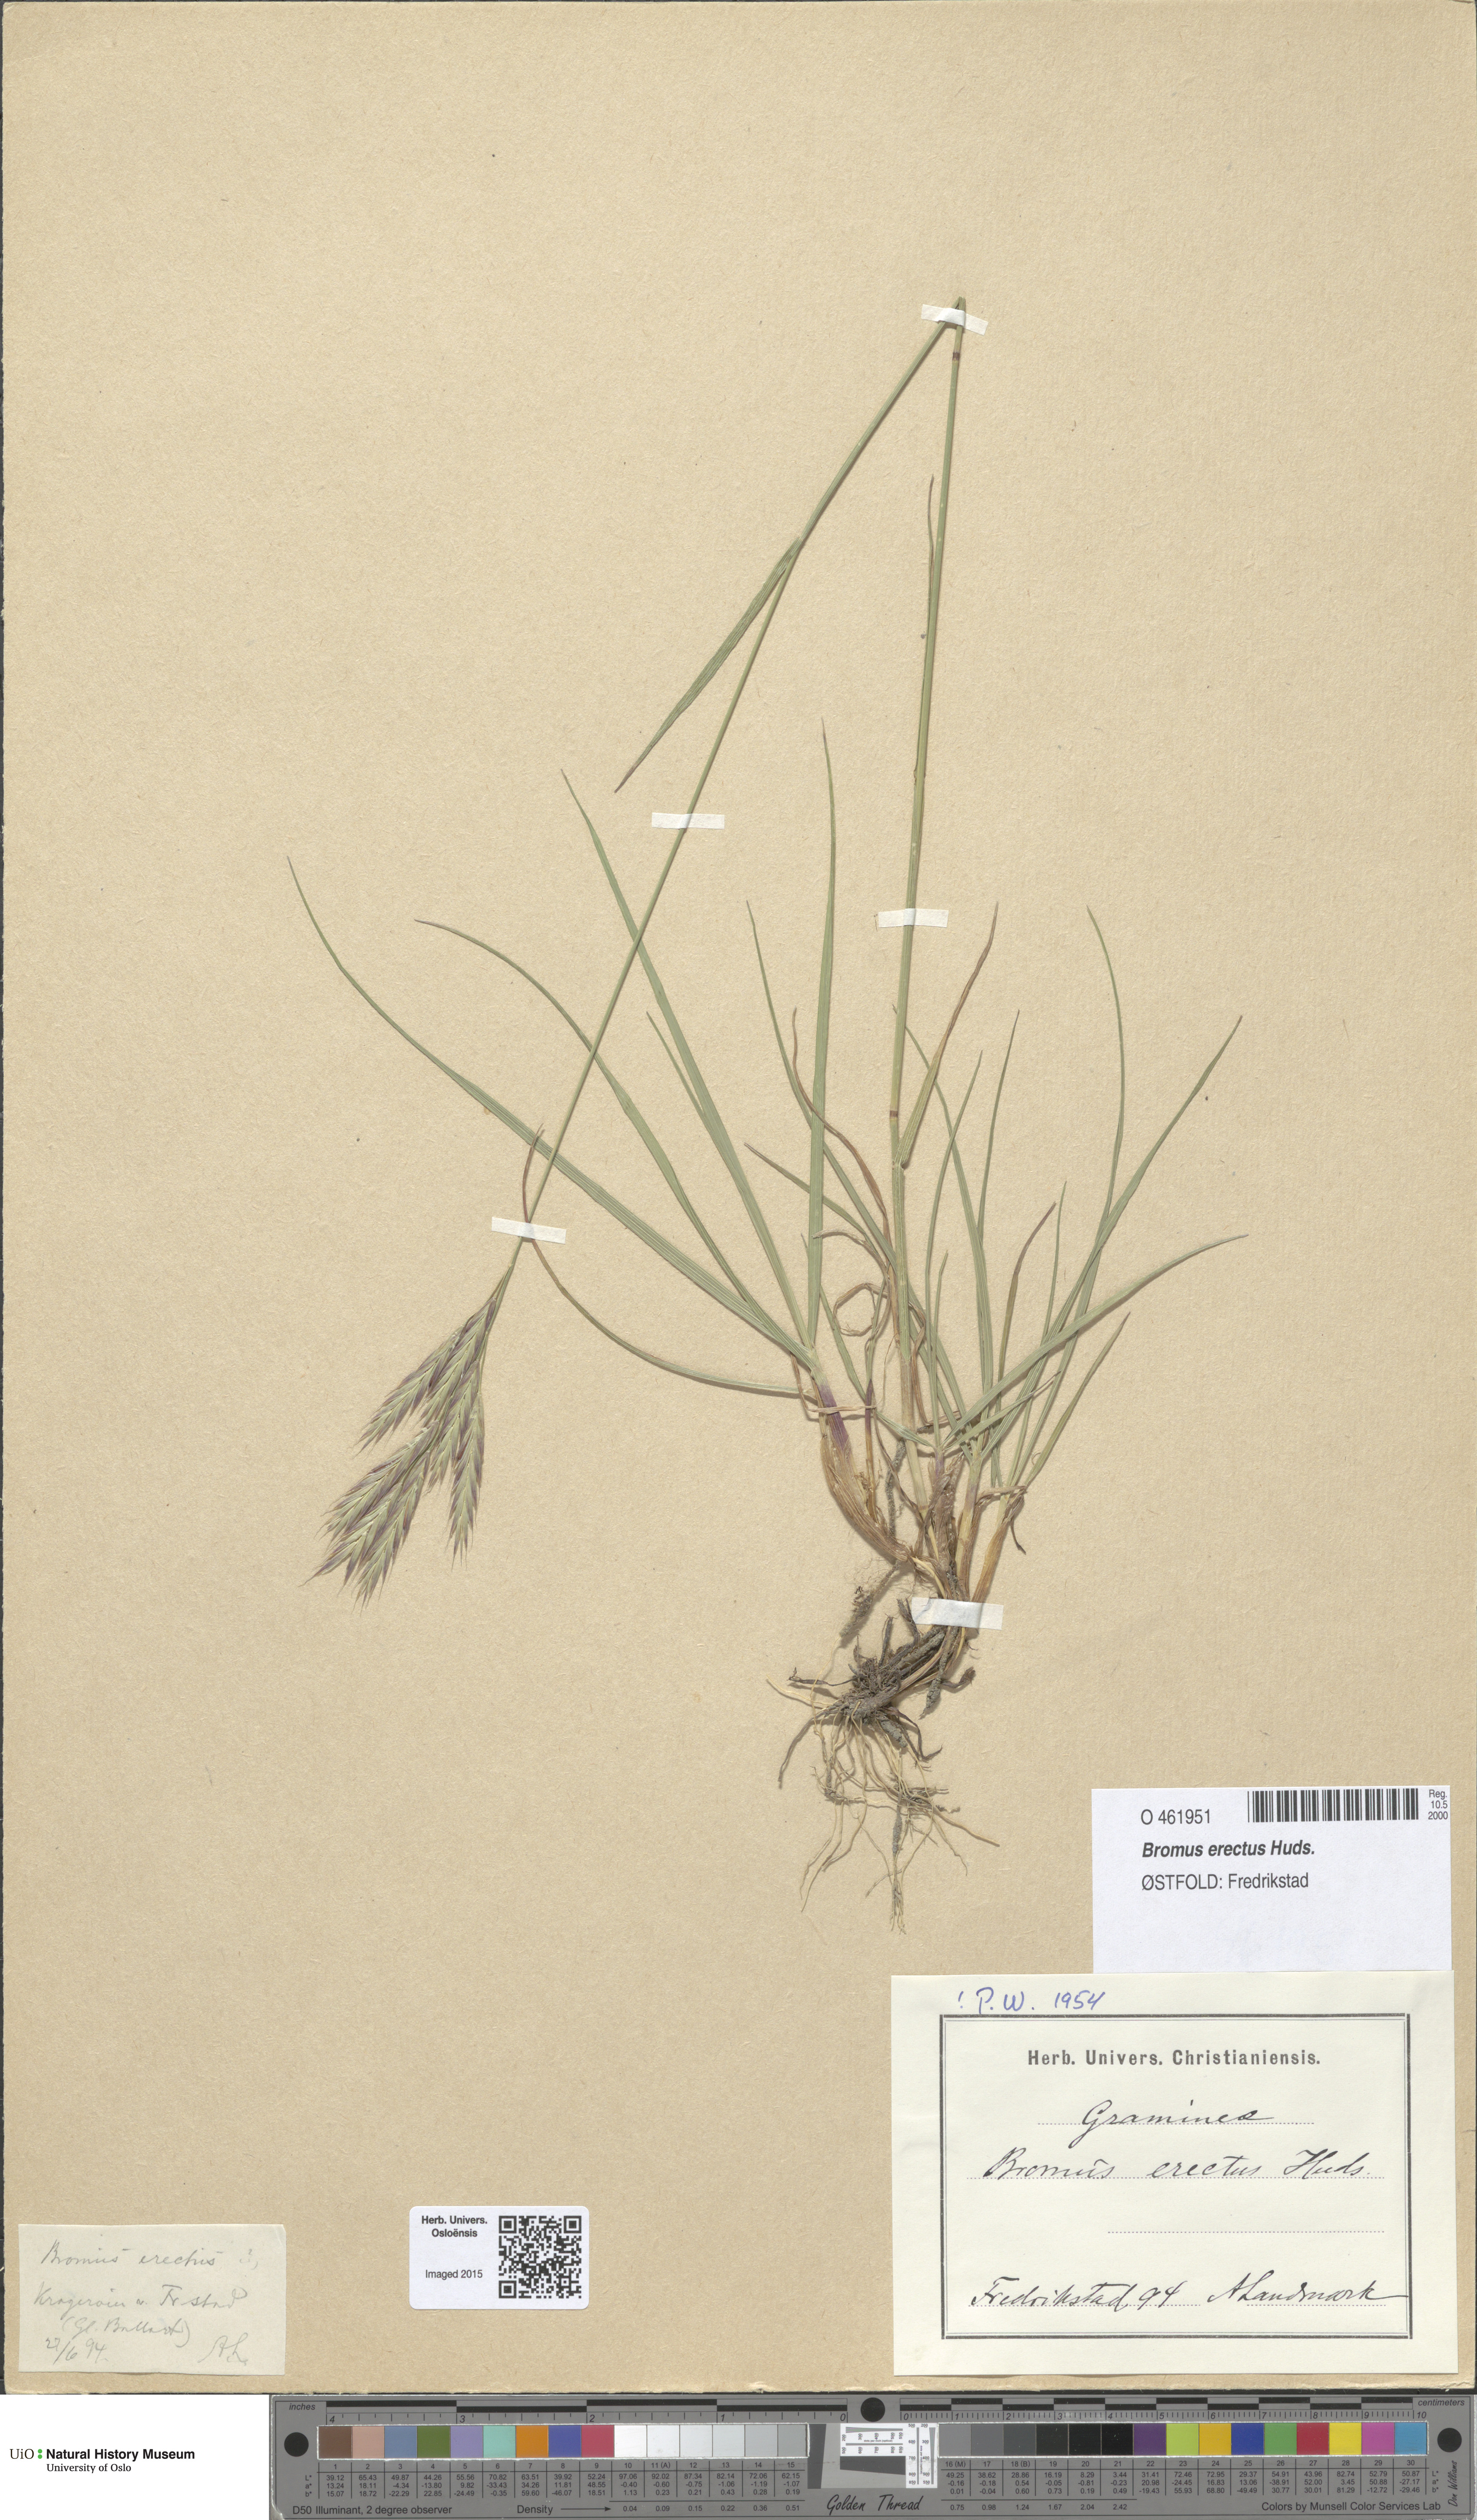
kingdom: Plantae
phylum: Tracheophyta
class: Liliopsida
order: Poales
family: Poaceae
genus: Bromus
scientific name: Bromus erectus
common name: Erect brome
